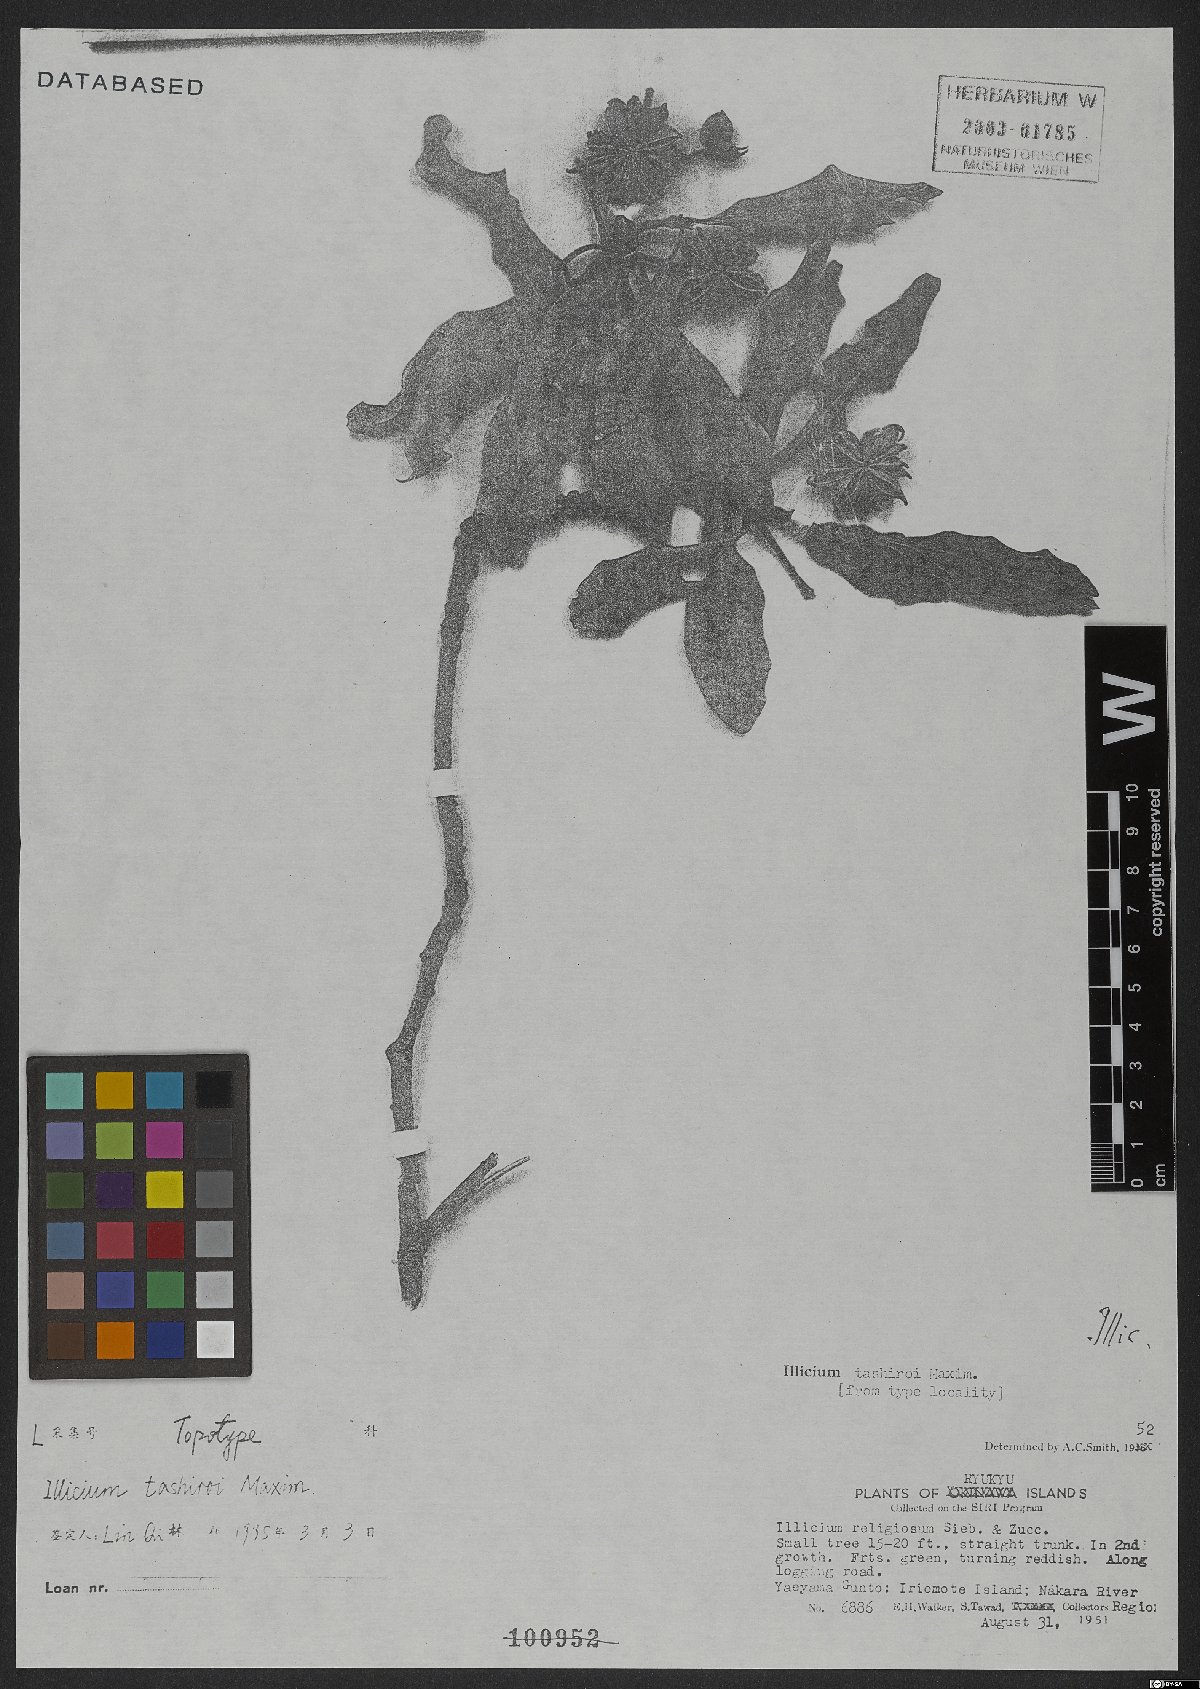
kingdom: Plantae
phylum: Tracheophyta
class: Magnoliopsida
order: Austrobaileyales
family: Schisandraceae
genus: Illicium
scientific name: Illicium tashiroi
